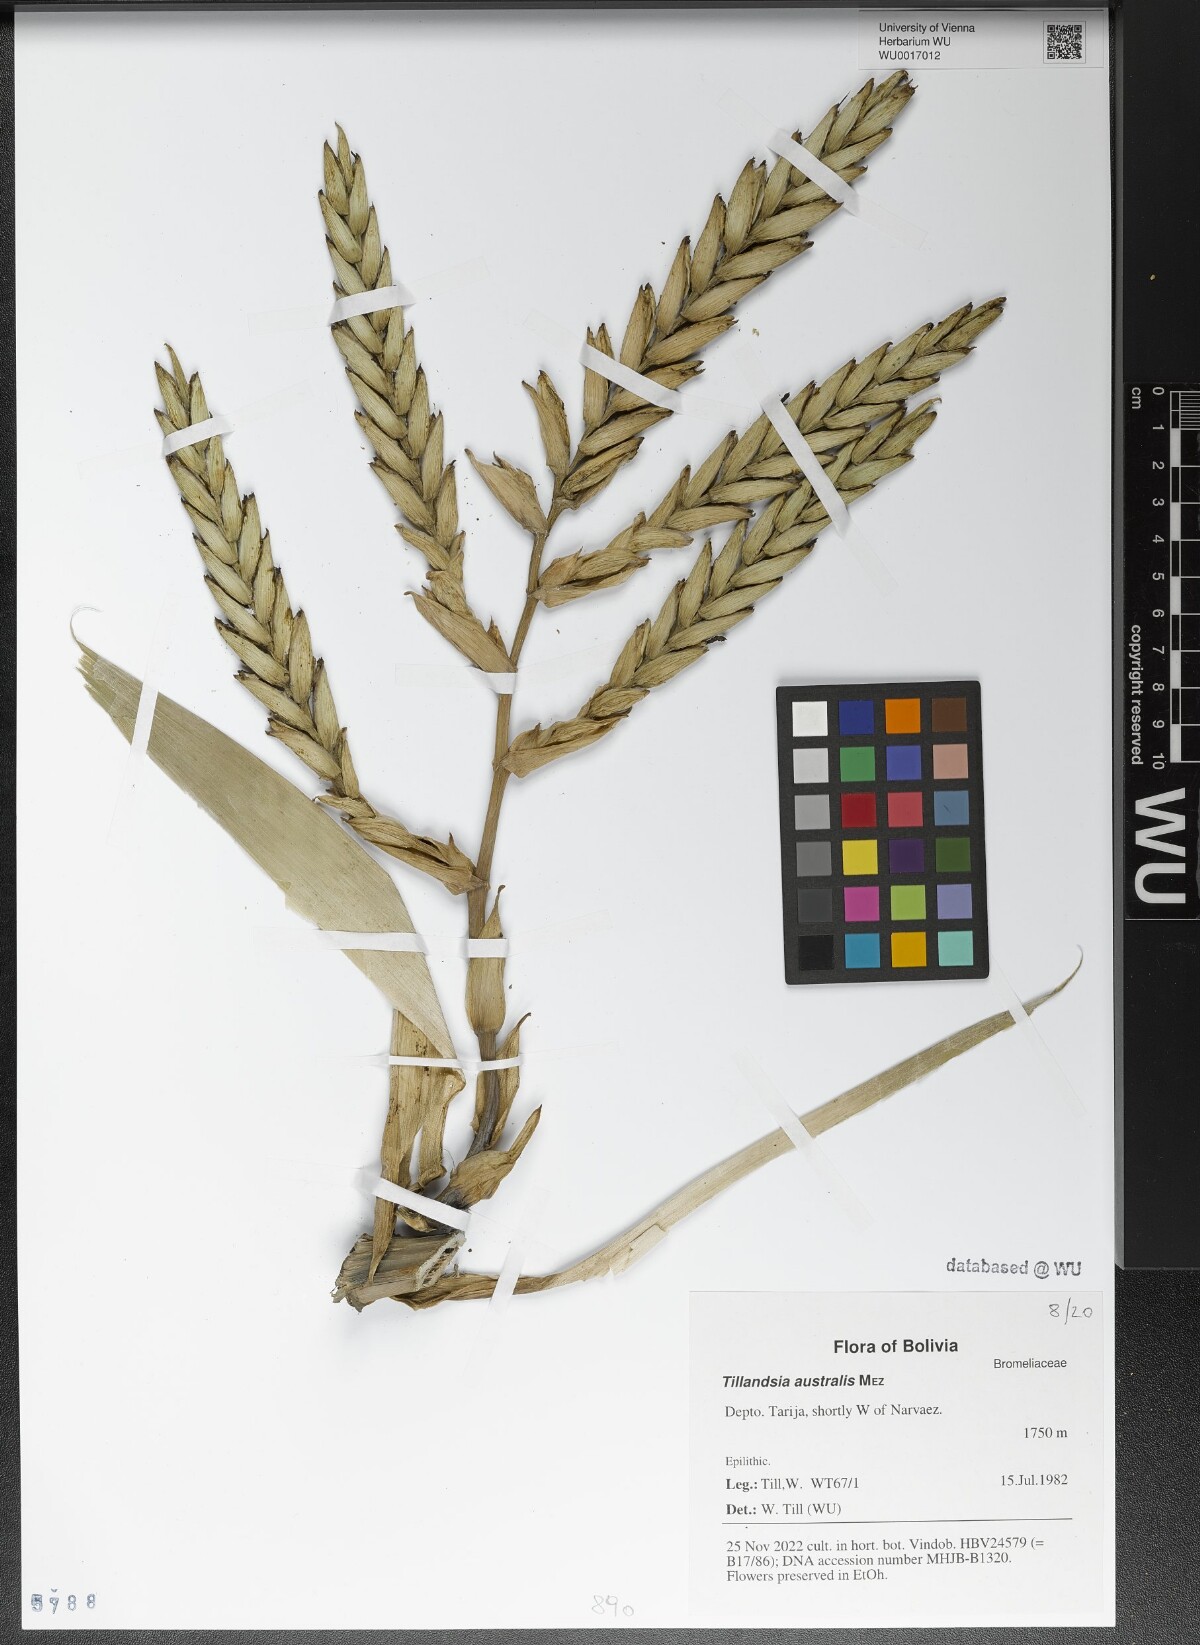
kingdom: Plantae
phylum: Tracheophyta
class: Liliopsida
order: Poales
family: Bromeliaceae
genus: Tillandsia
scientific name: Tillandsia australis
